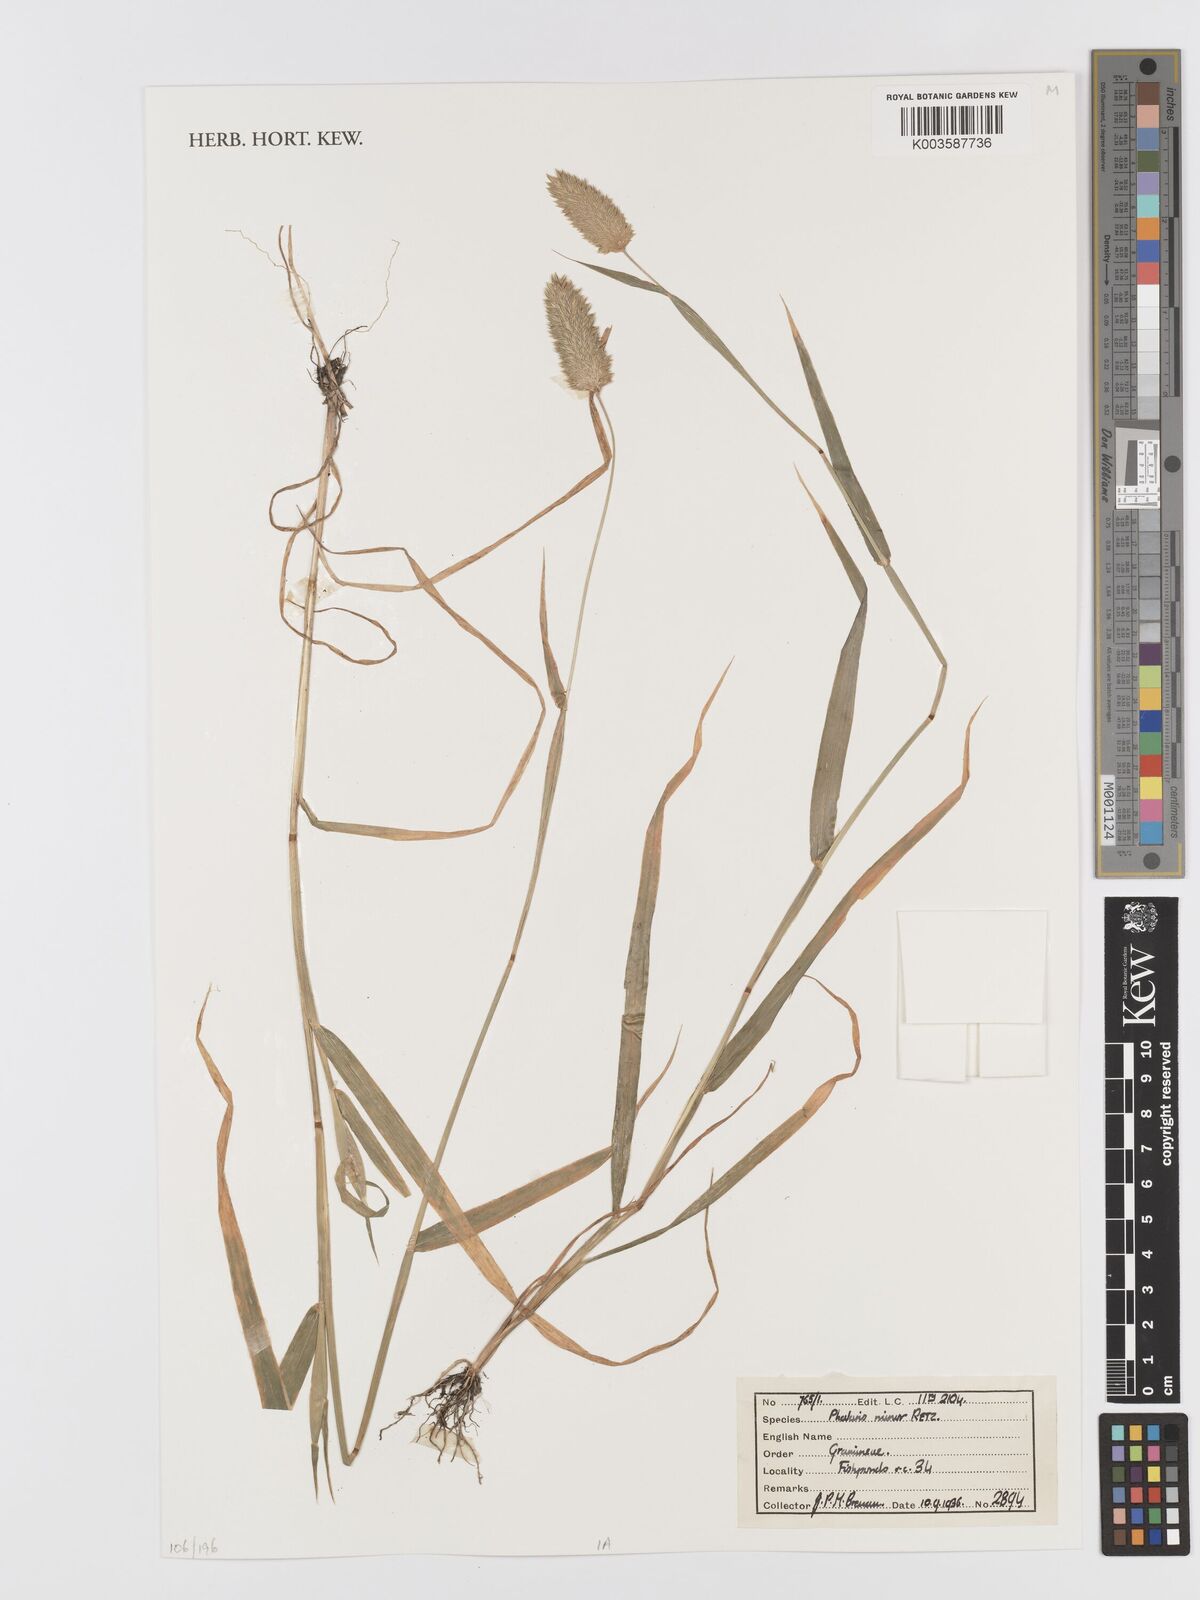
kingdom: Plantae
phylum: Tracheophyta
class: Liliopsida
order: Poales
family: Poaceae
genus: Phalaris
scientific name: Phalaris minor
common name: Littleseed canarygrass
